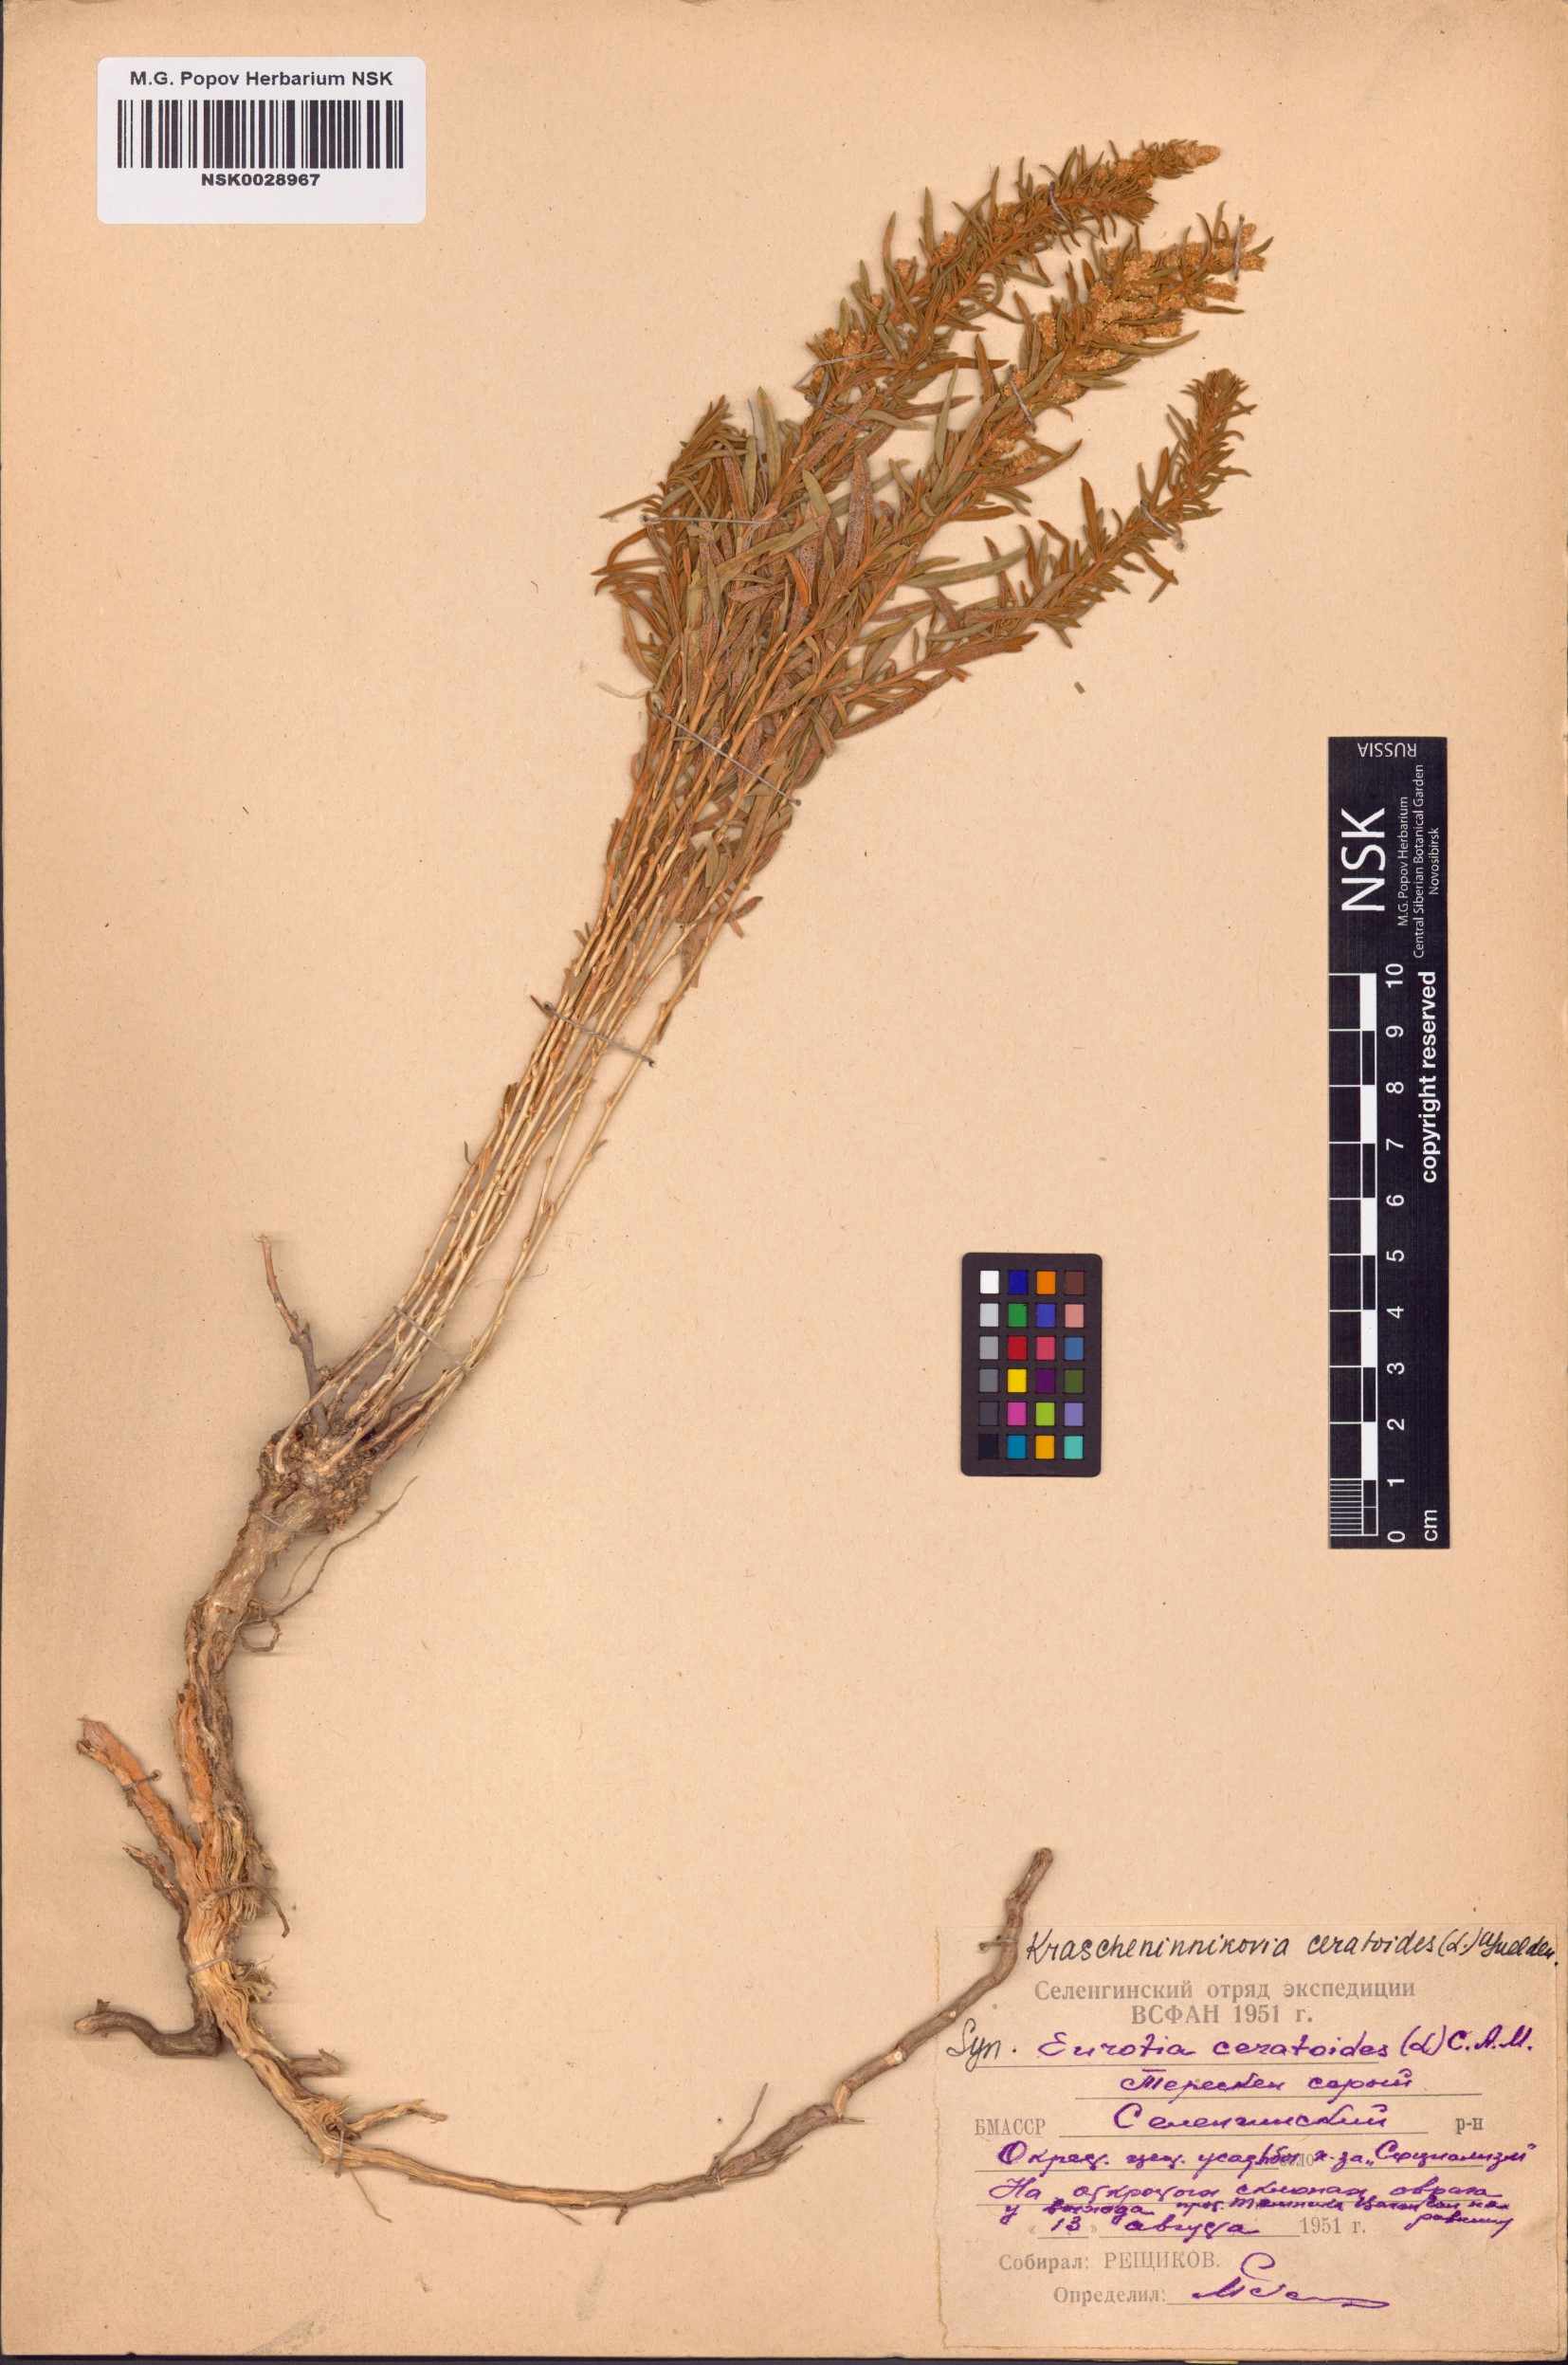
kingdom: Plantae
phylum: Tracheophyta
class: Magnoliopsida
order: Caryophyllales
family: Amaranthaceae
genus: Krascheninnikovia
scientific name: Krascheninnikovia ceratoides
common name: Pamirian winterfat
